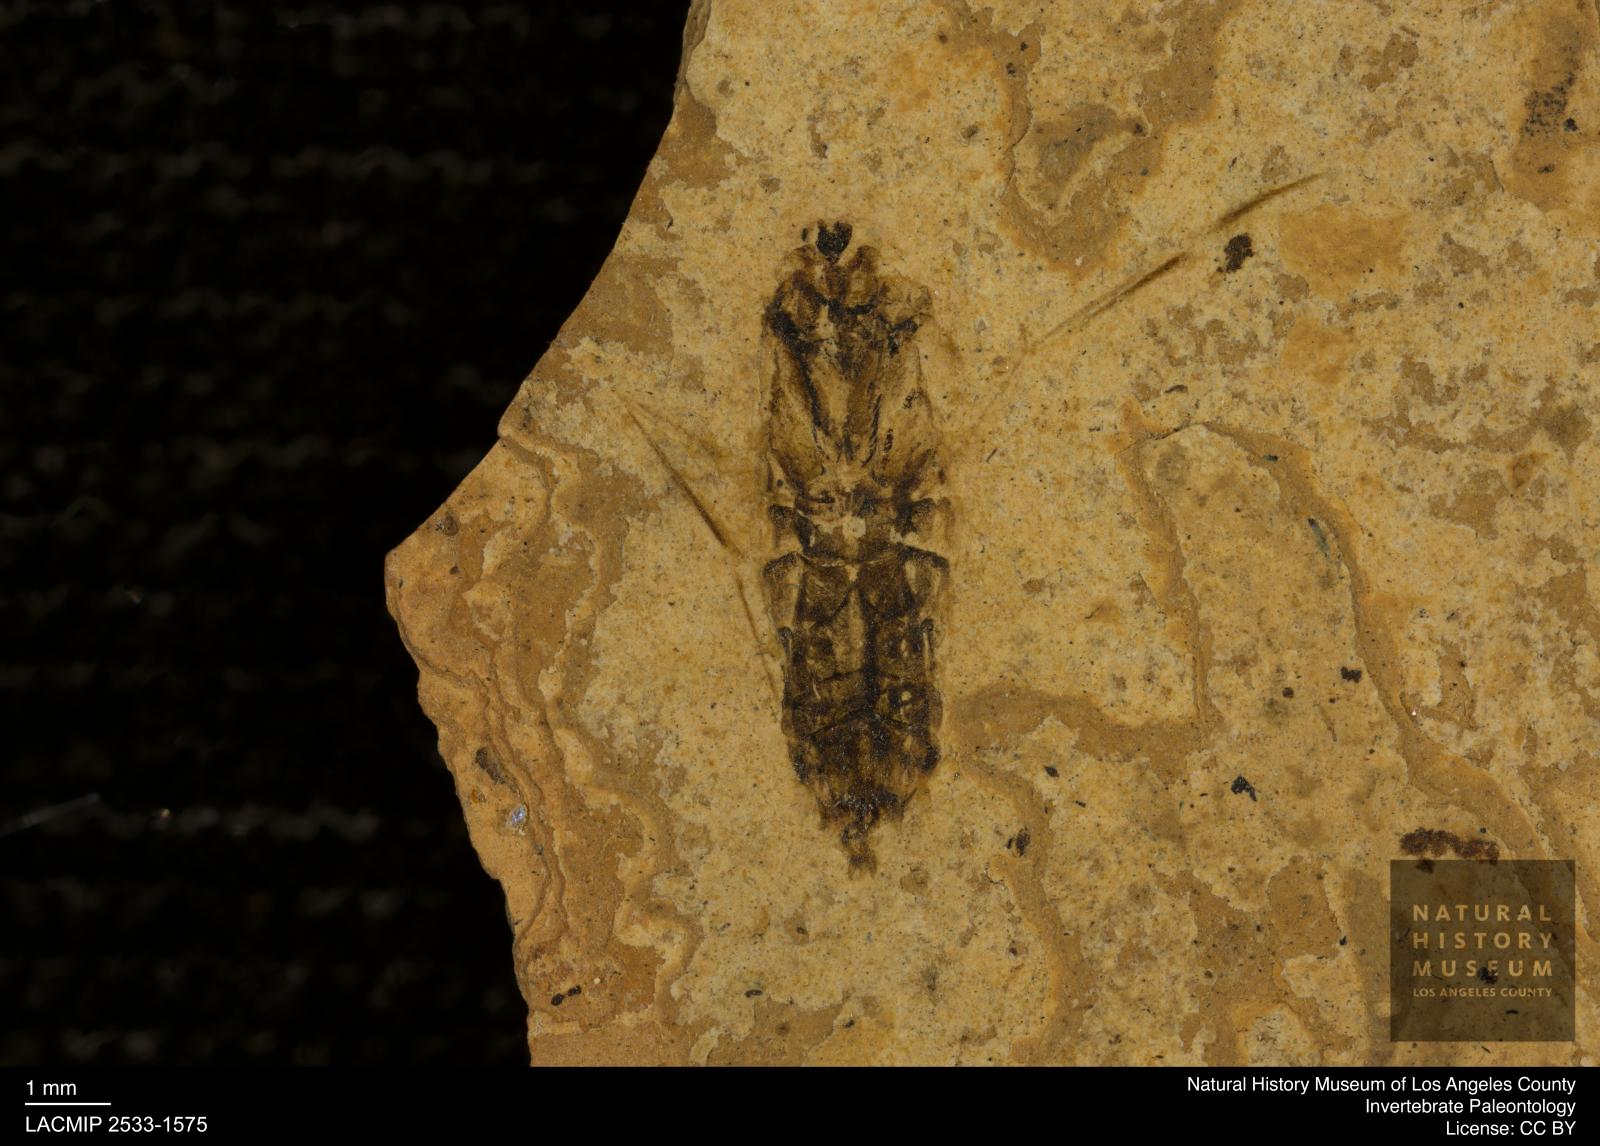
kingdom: Animalia
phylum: Arthropoda
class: Insecta
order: Hemiptera
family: Notonectidae
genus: Notonecta
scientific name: Notonecta
